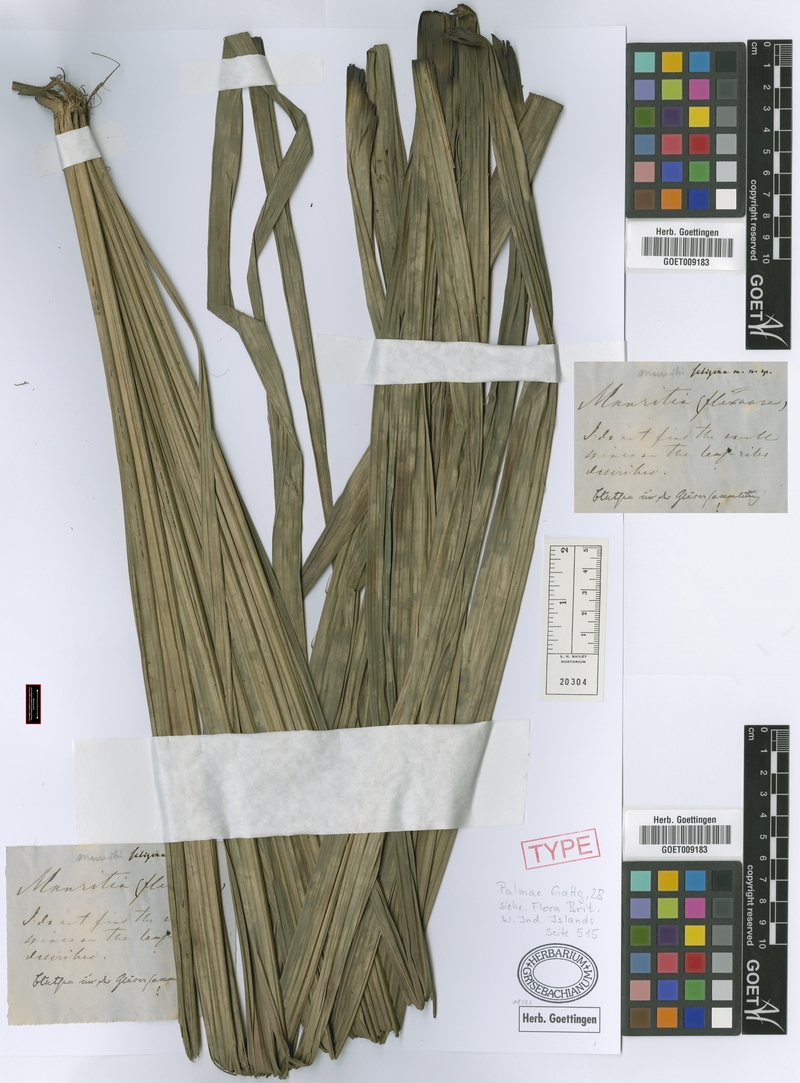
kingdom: Plantae
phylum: Tracheophyta
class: Liliopsida
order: Arecales
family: Arecaceae
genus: Mauritia
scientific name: Mauritia flexuosa
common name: Tree-of-life
